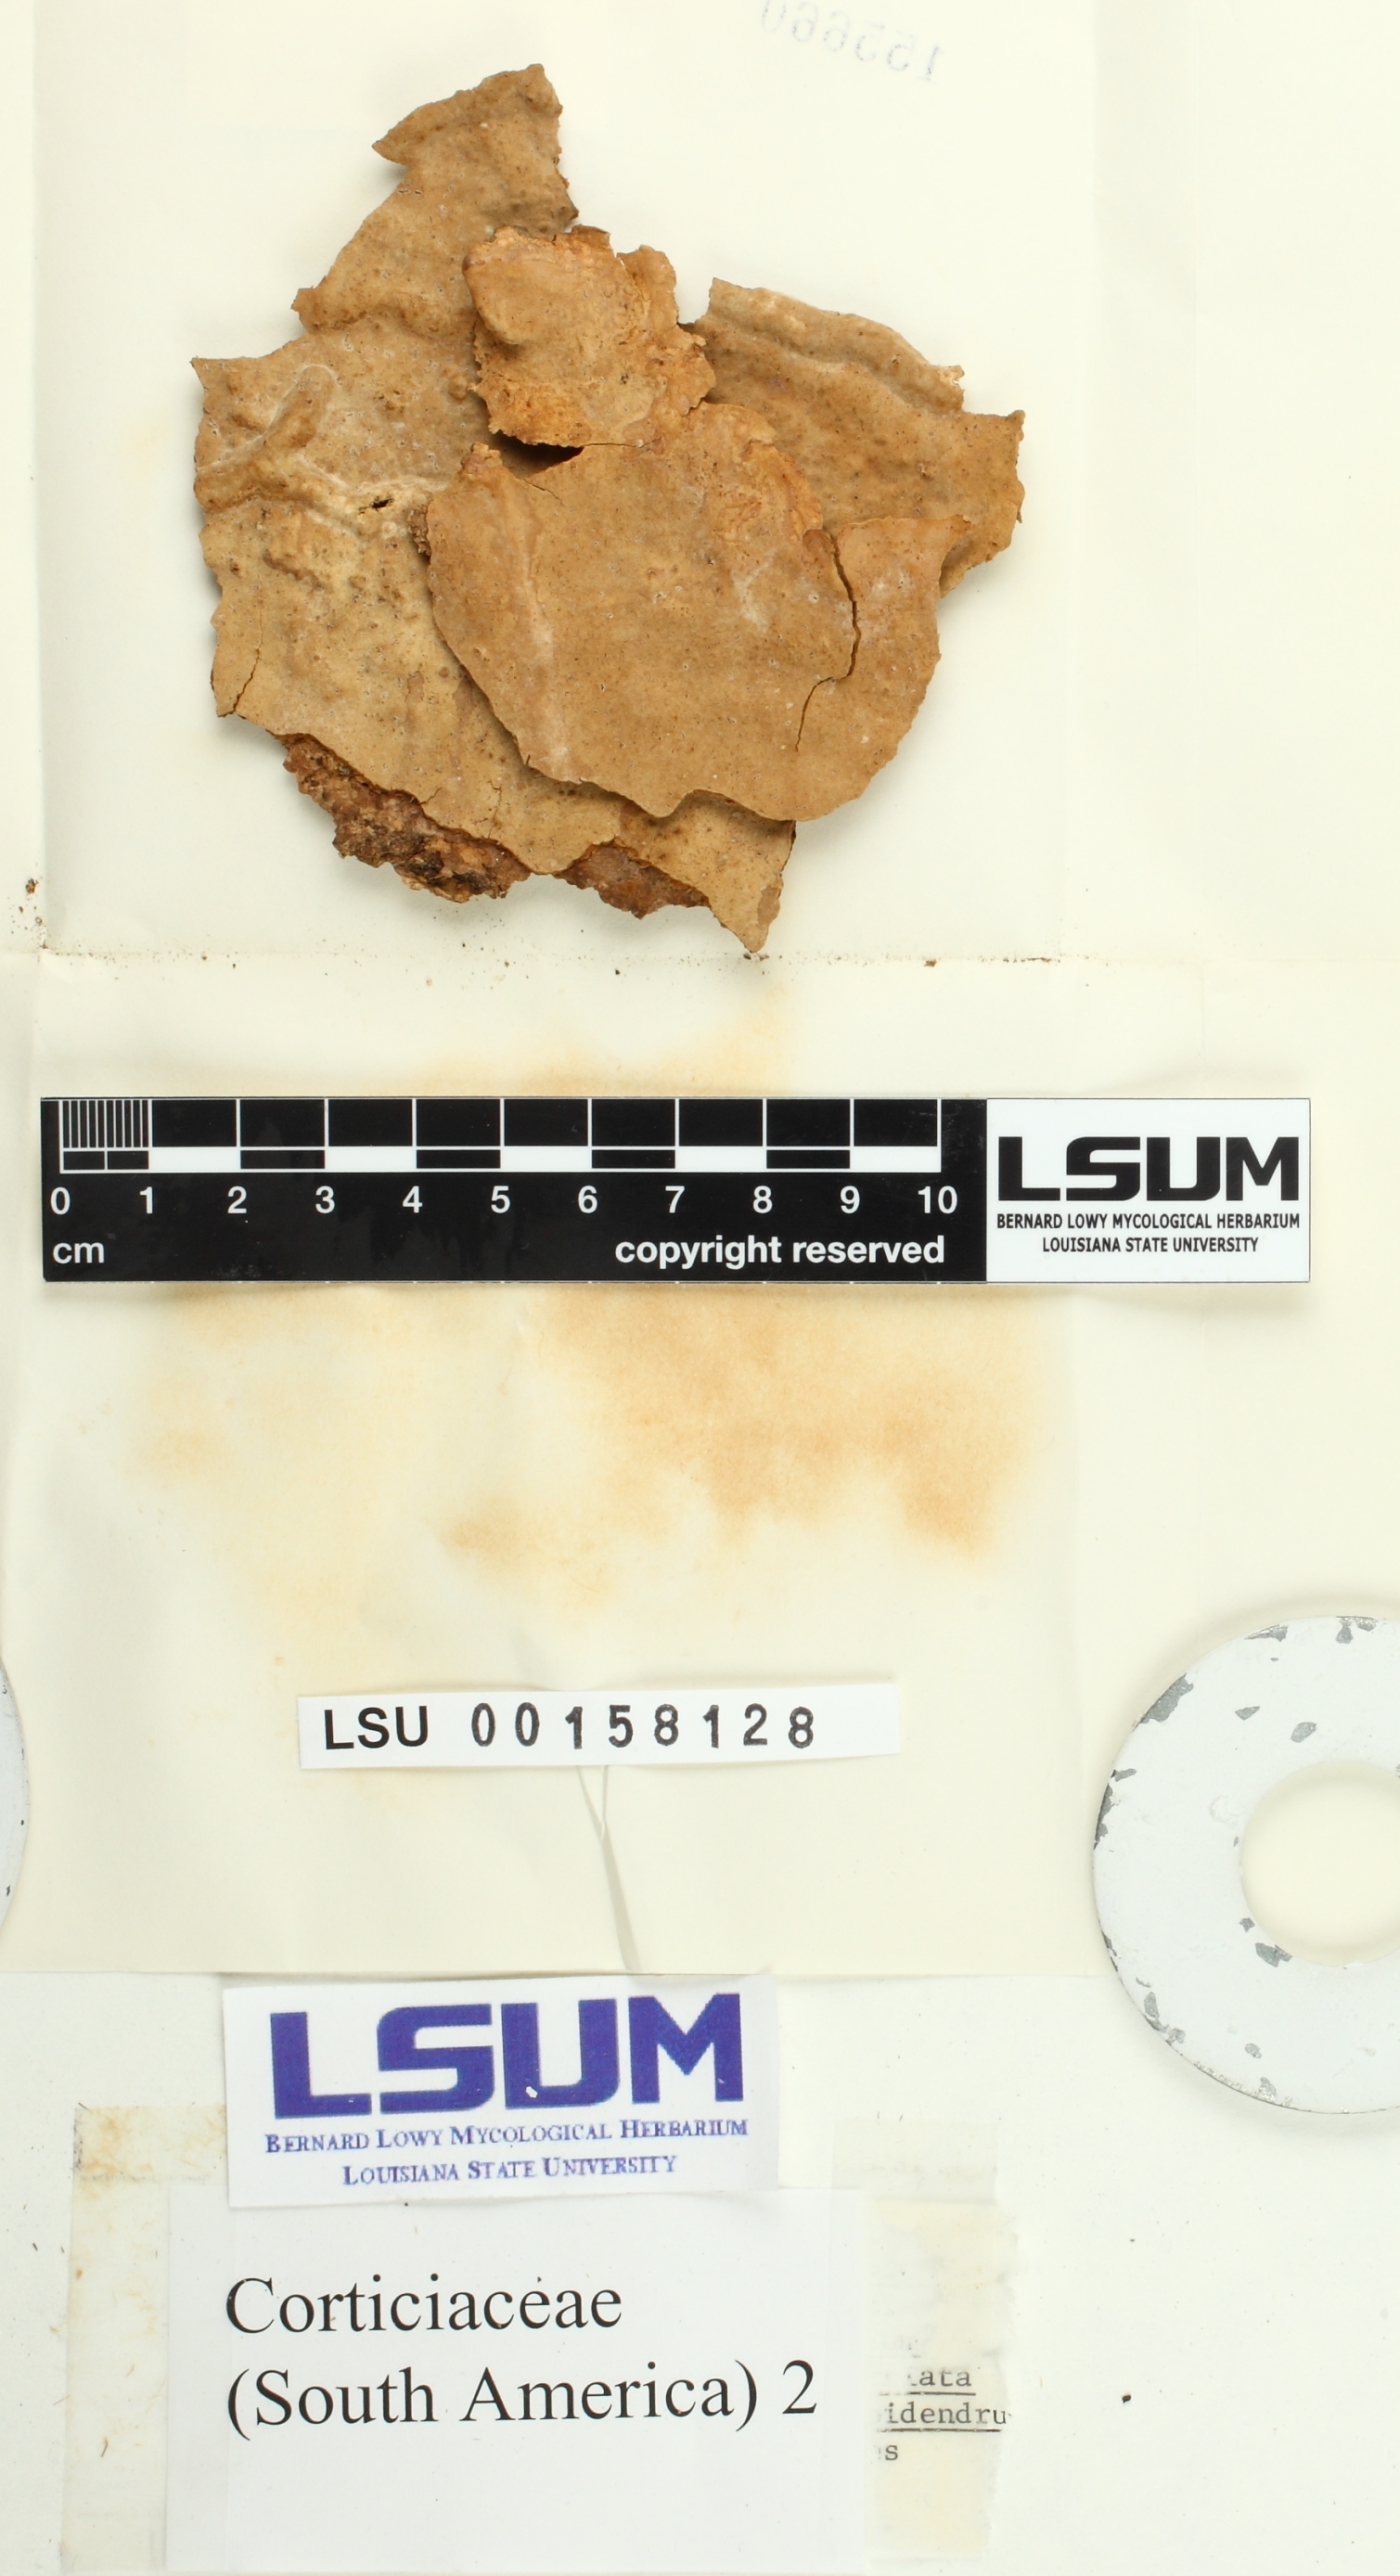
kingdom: Fungi
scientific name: Fungi
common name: Fungi
